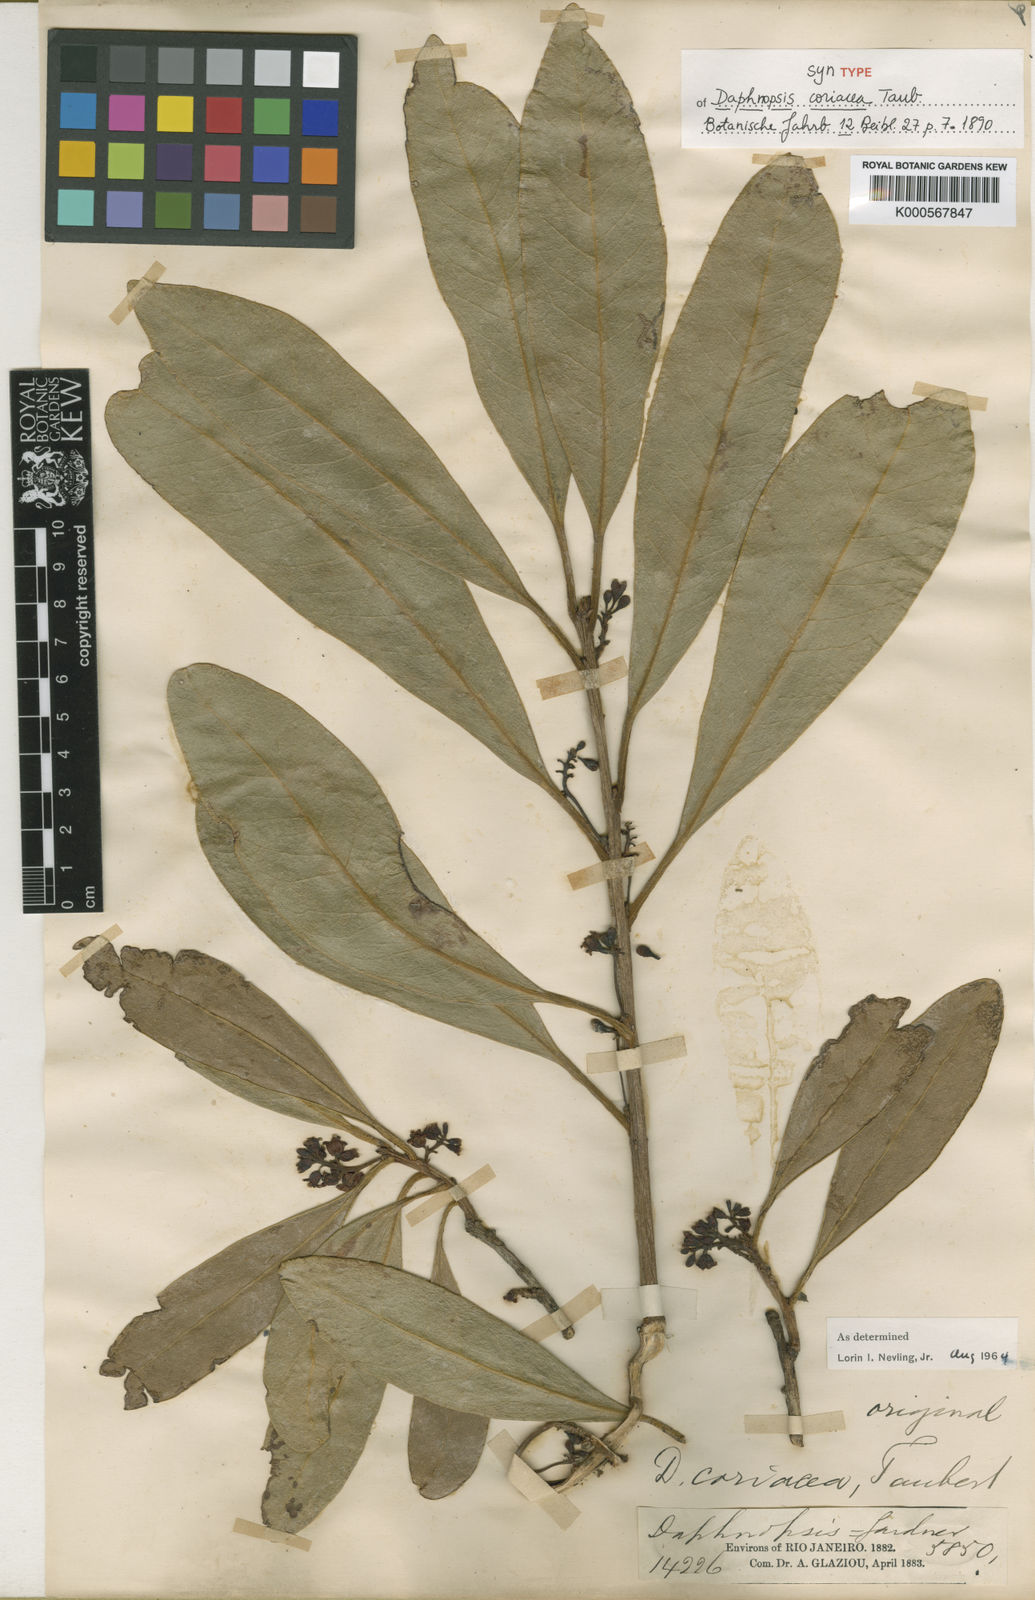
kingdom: Plantae
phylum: Tracheophyta
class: Magnoliopsida
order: Malvales
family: Thymelaeaceae
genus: Daphnopsis
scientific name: Daphnopsis coriacea
